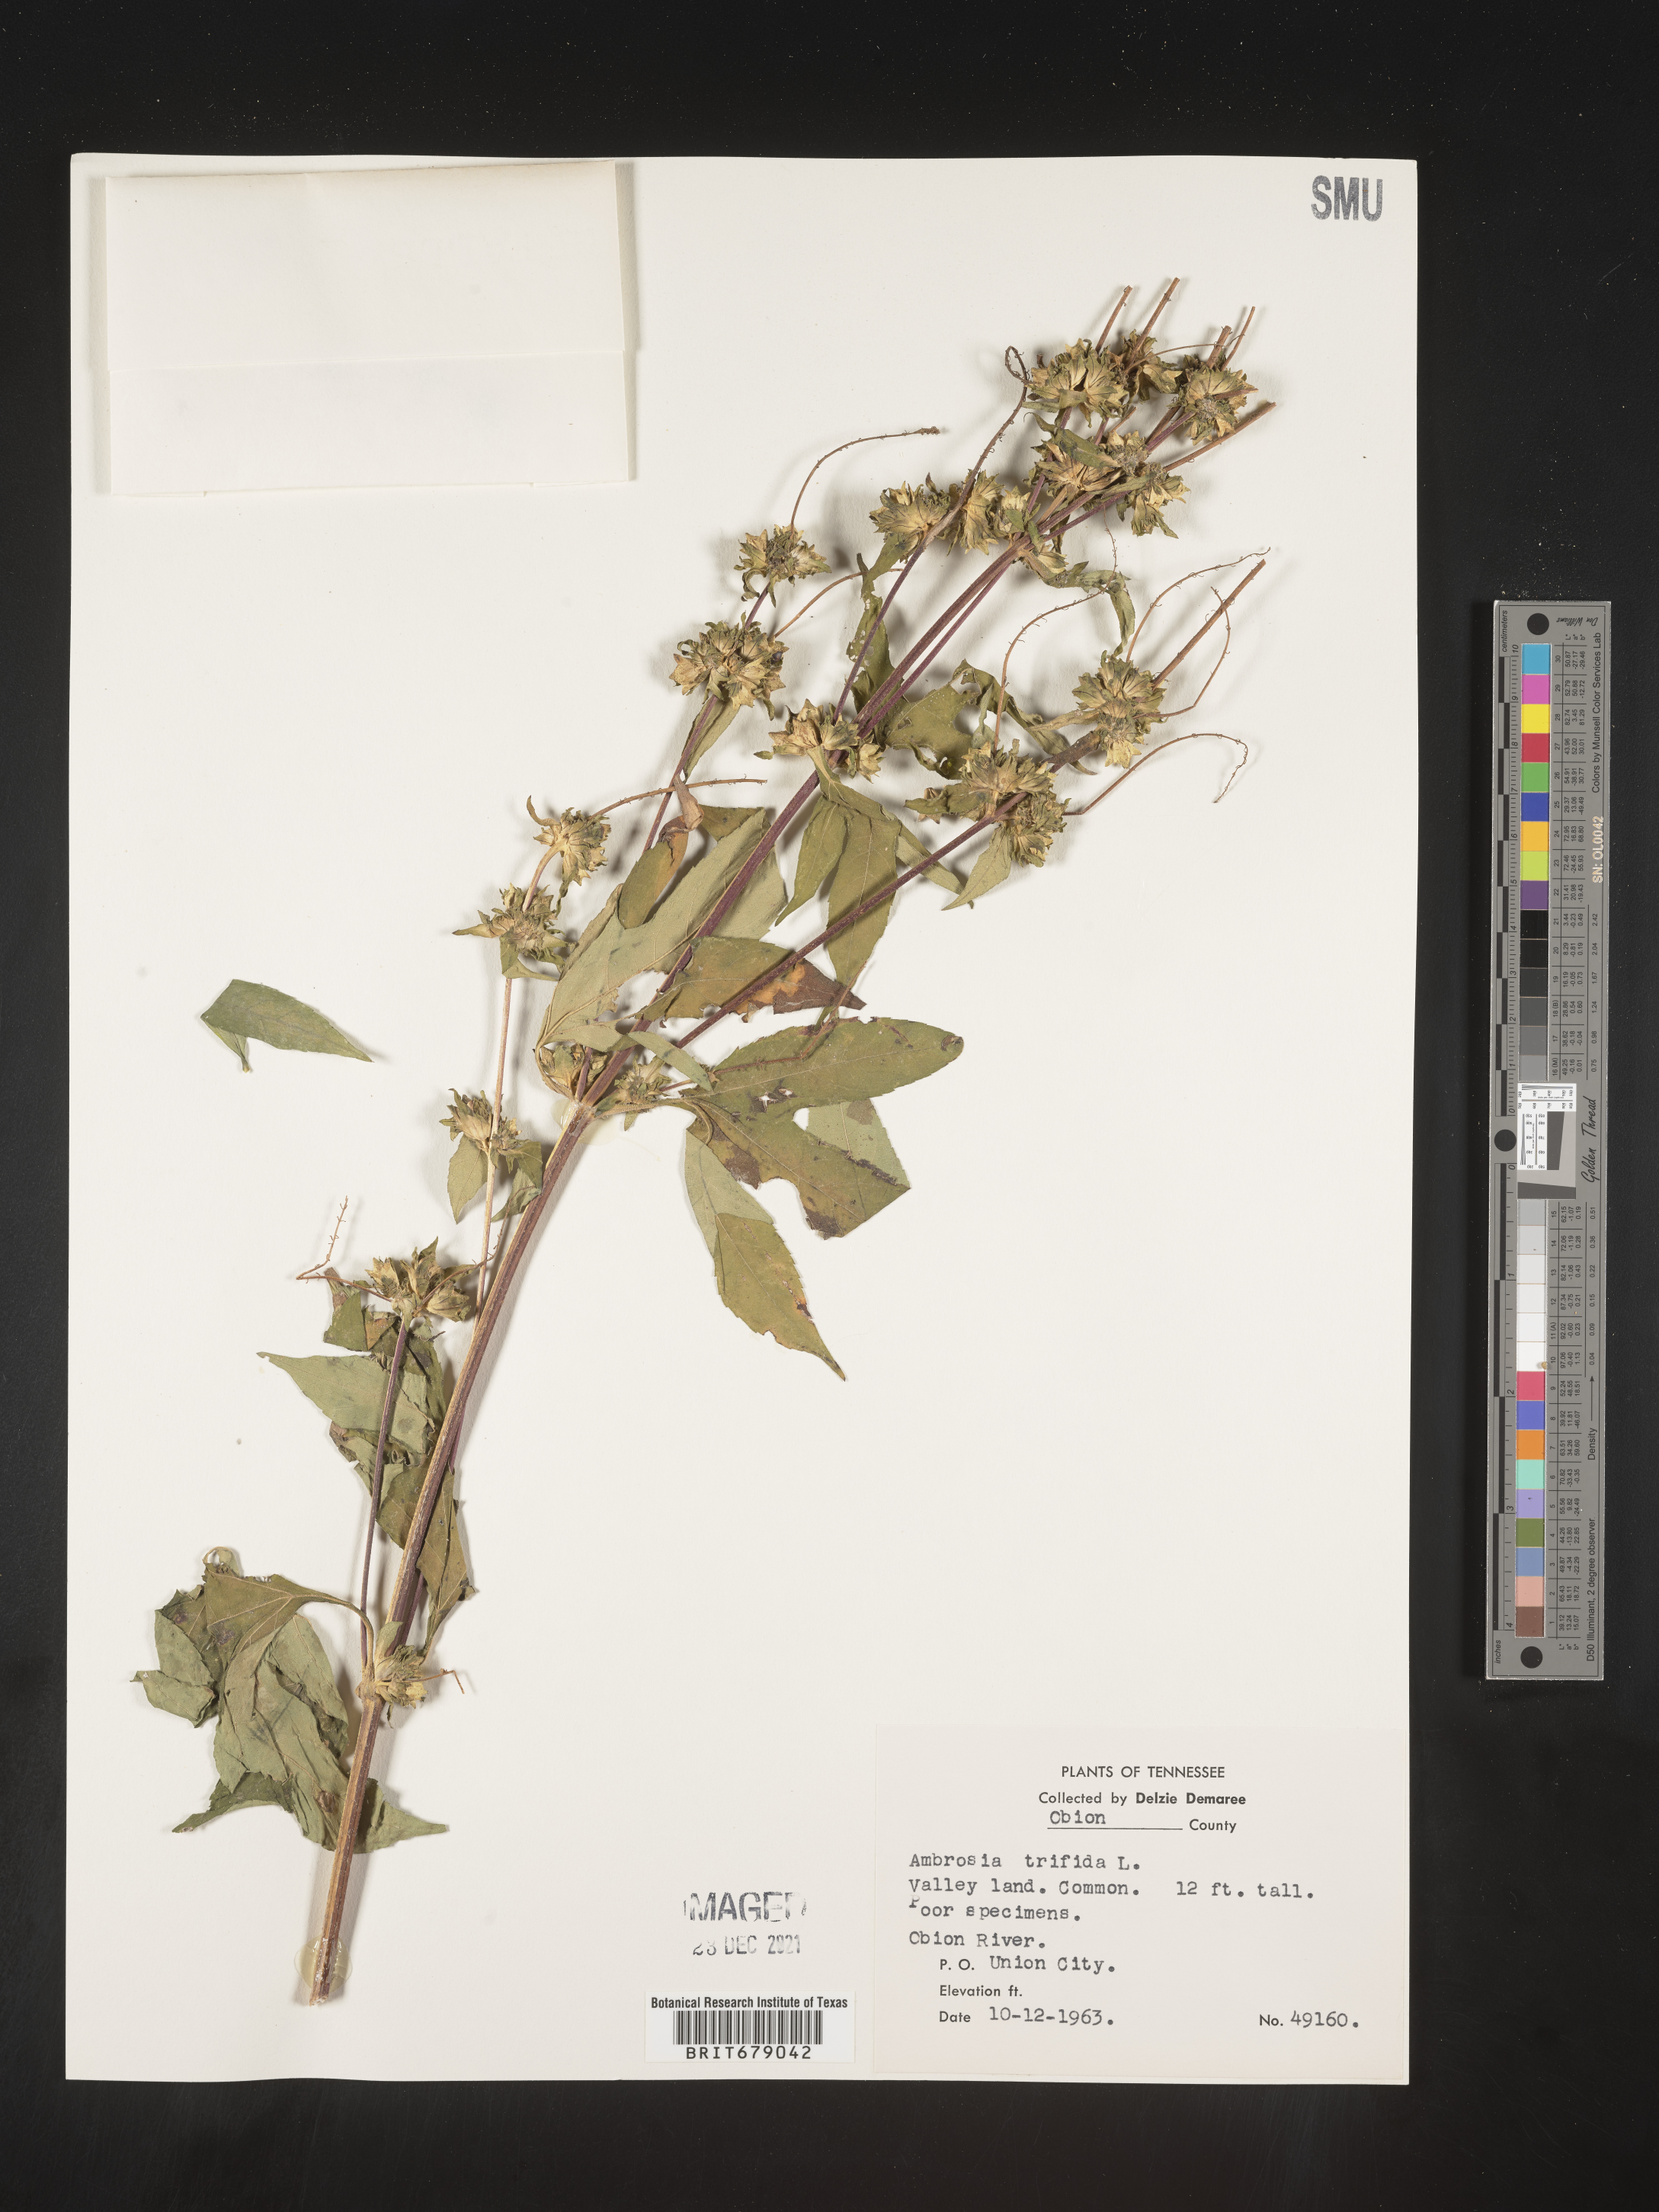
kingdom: Plantae
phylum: Tracheophyta
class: Magnoliopsida
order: Asterales
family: Asteraceae
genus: Ambrosia
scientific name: Ambrosia trifida
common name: Giant ragweed
